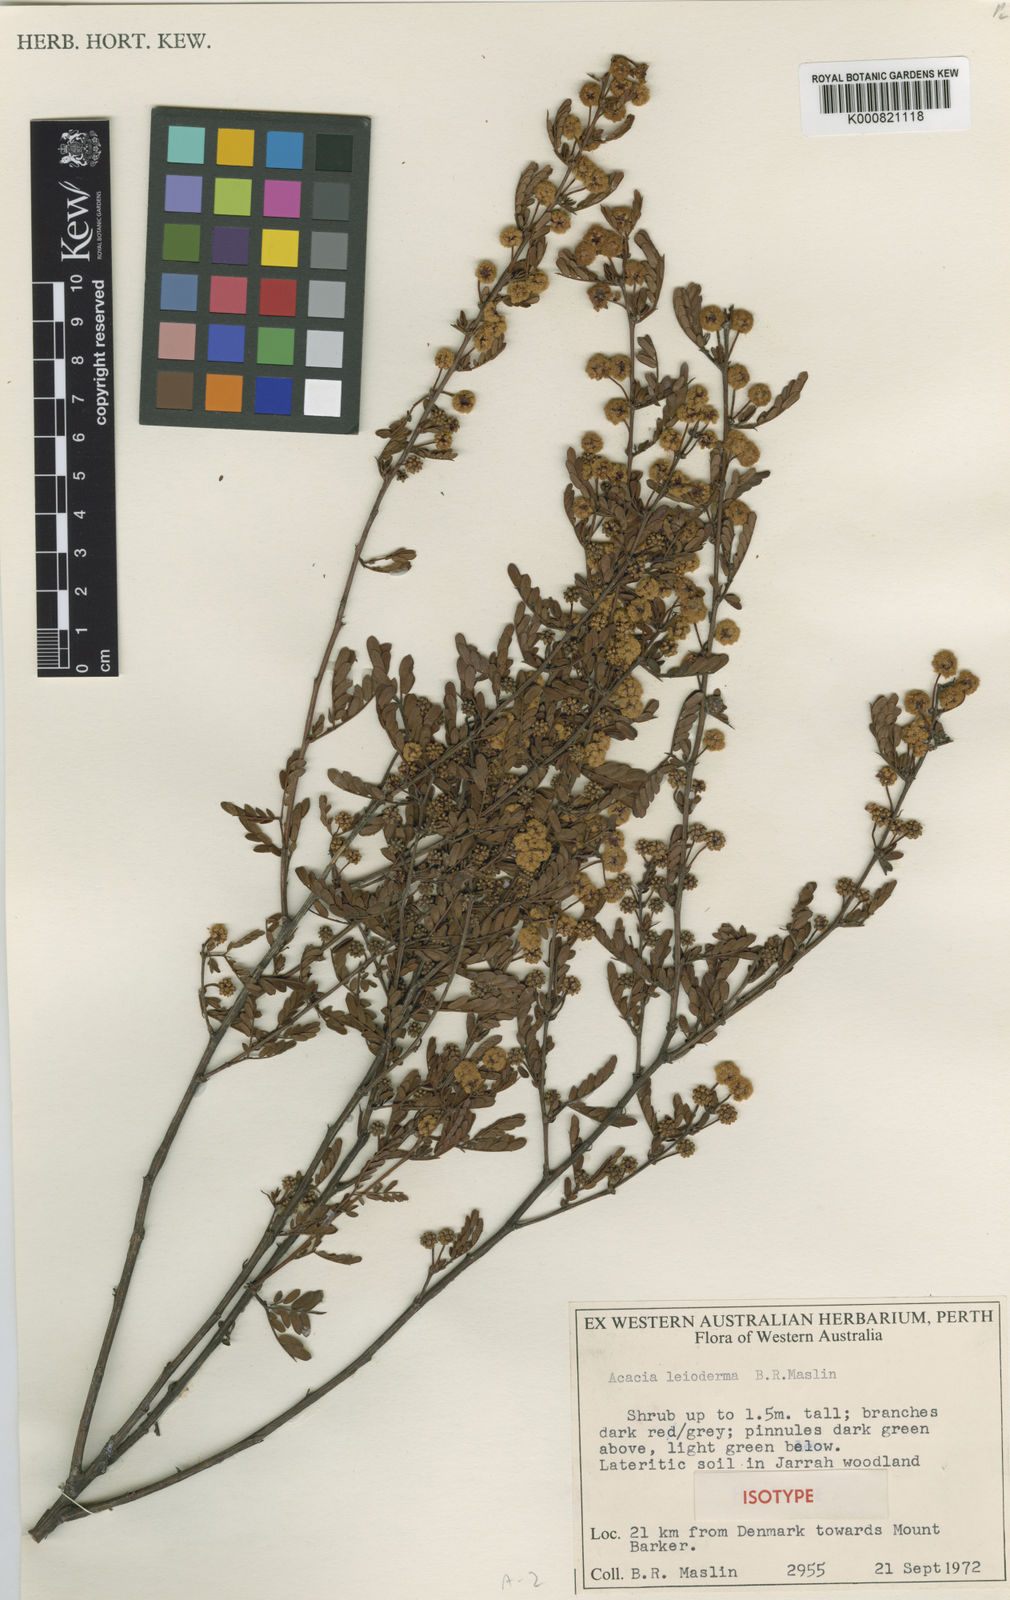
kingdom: Plantae
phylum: Tracheophyta
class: Magnoliopsida
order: Fabales
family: Fabaceae
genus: Acacia
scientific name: Acacia leioderma
